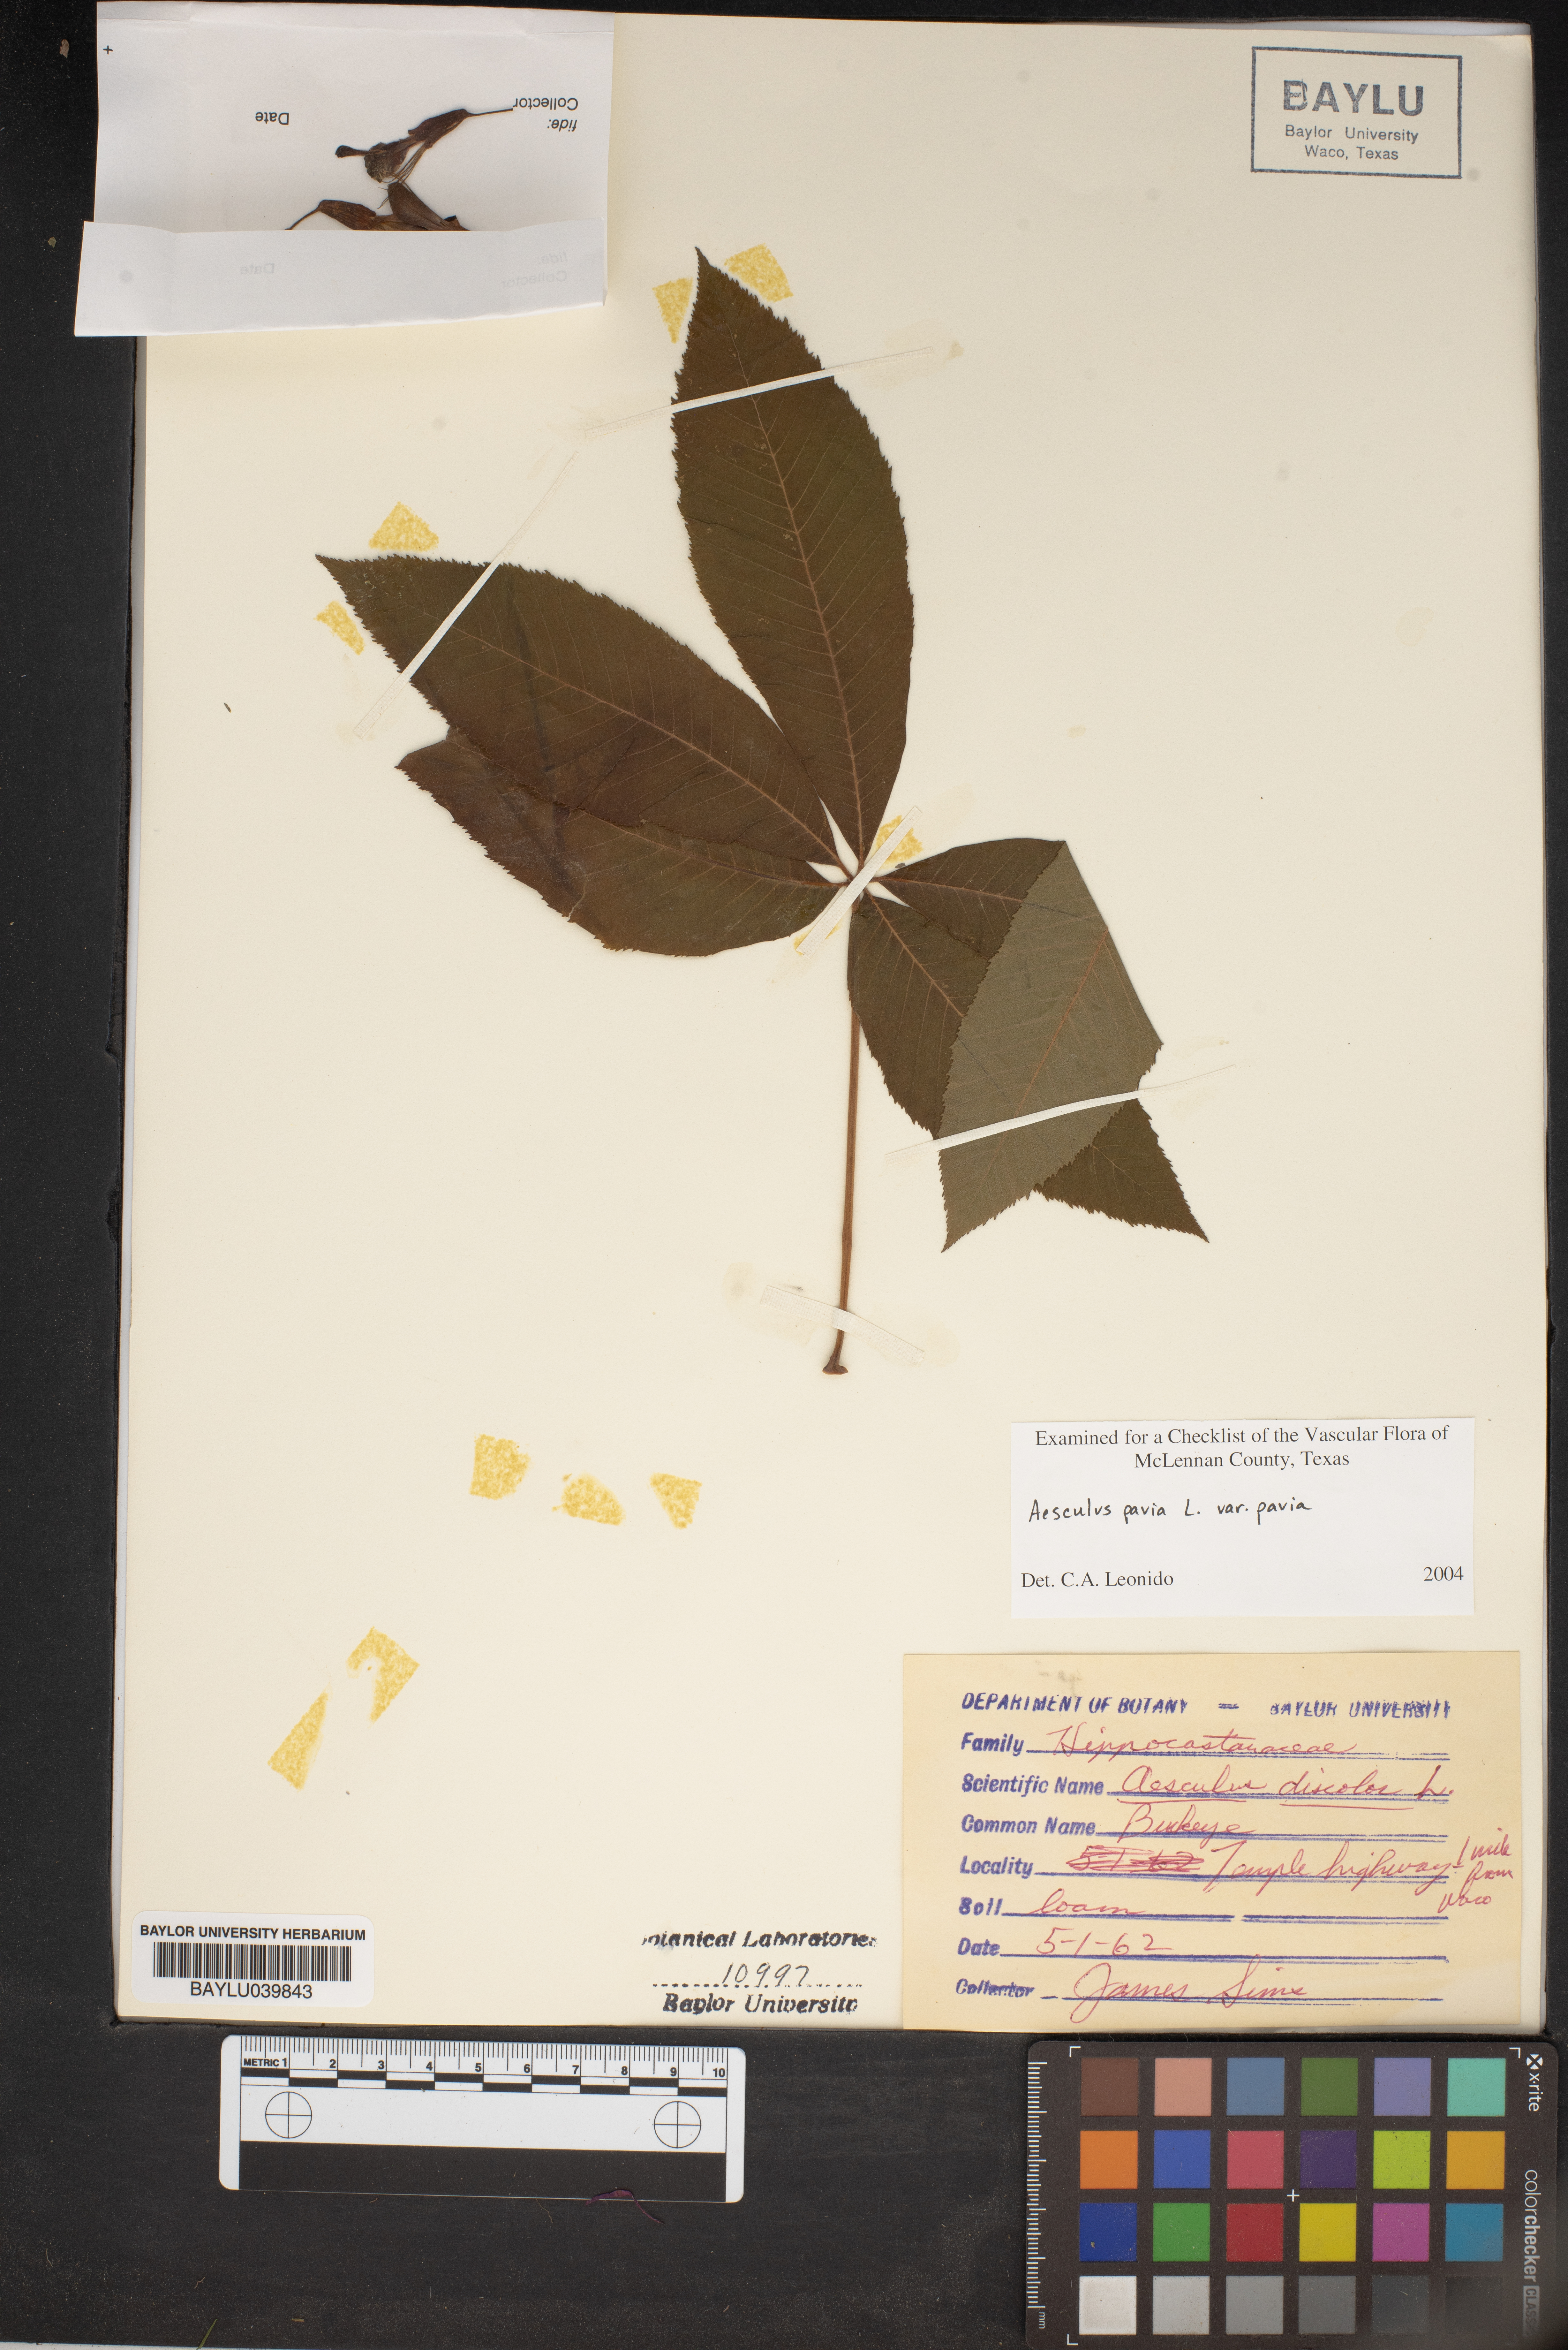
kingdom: Plantae
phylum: Tracheophyta
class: Magnoliopsida
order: Sapindales
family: Sapindaceae
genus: Aesculus
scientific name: Aesculus pavia
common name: Red buckeye
